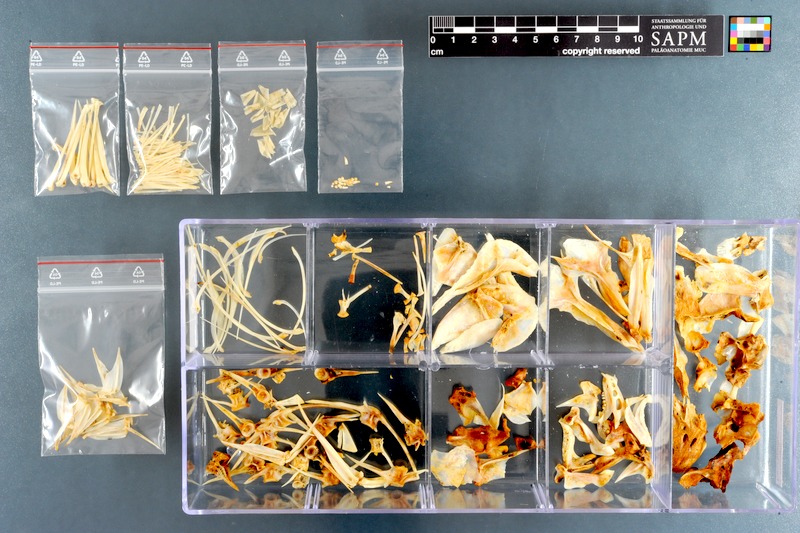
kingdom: Animalia
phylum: Chordata
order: Perciformes
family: Sparidae
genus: Pterogymnus
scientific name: Pterogymnus laniarius
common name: Panga
